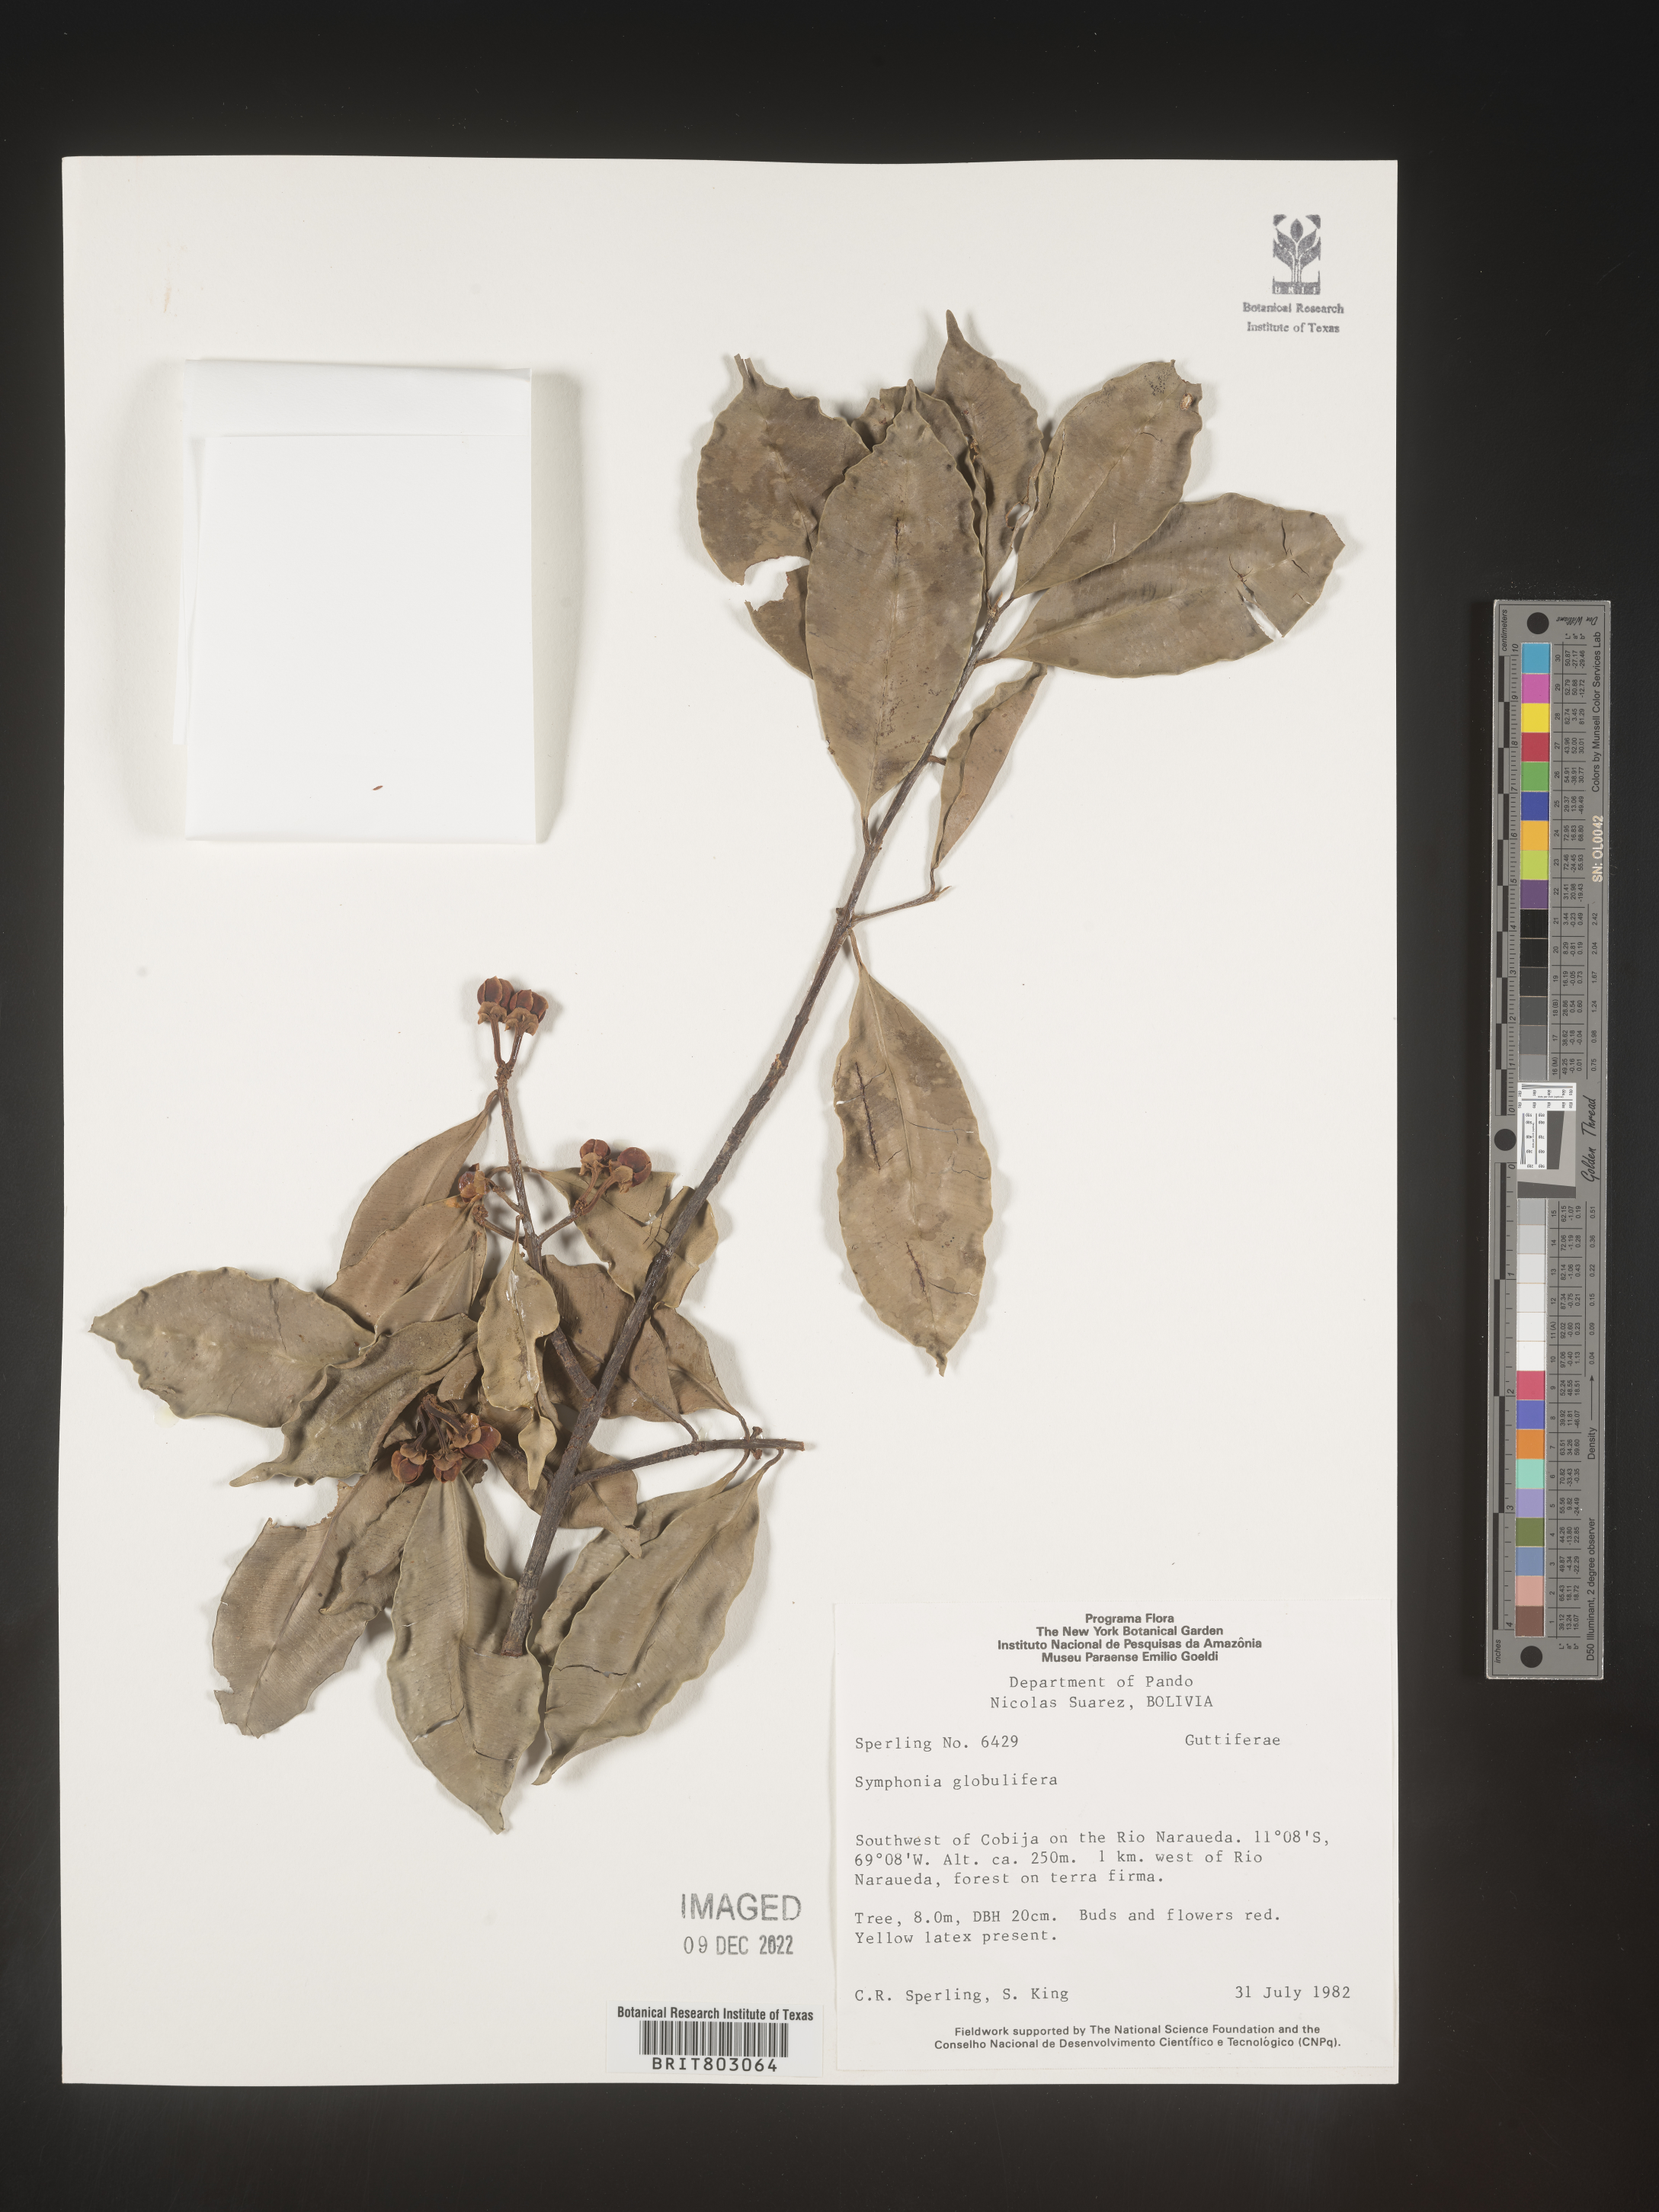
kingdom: Plantae
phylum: Tracheophyta
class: Magnoliopsida
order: Malpighiales
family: Clusiaceae
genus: Symphonia
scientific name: Symphonia
